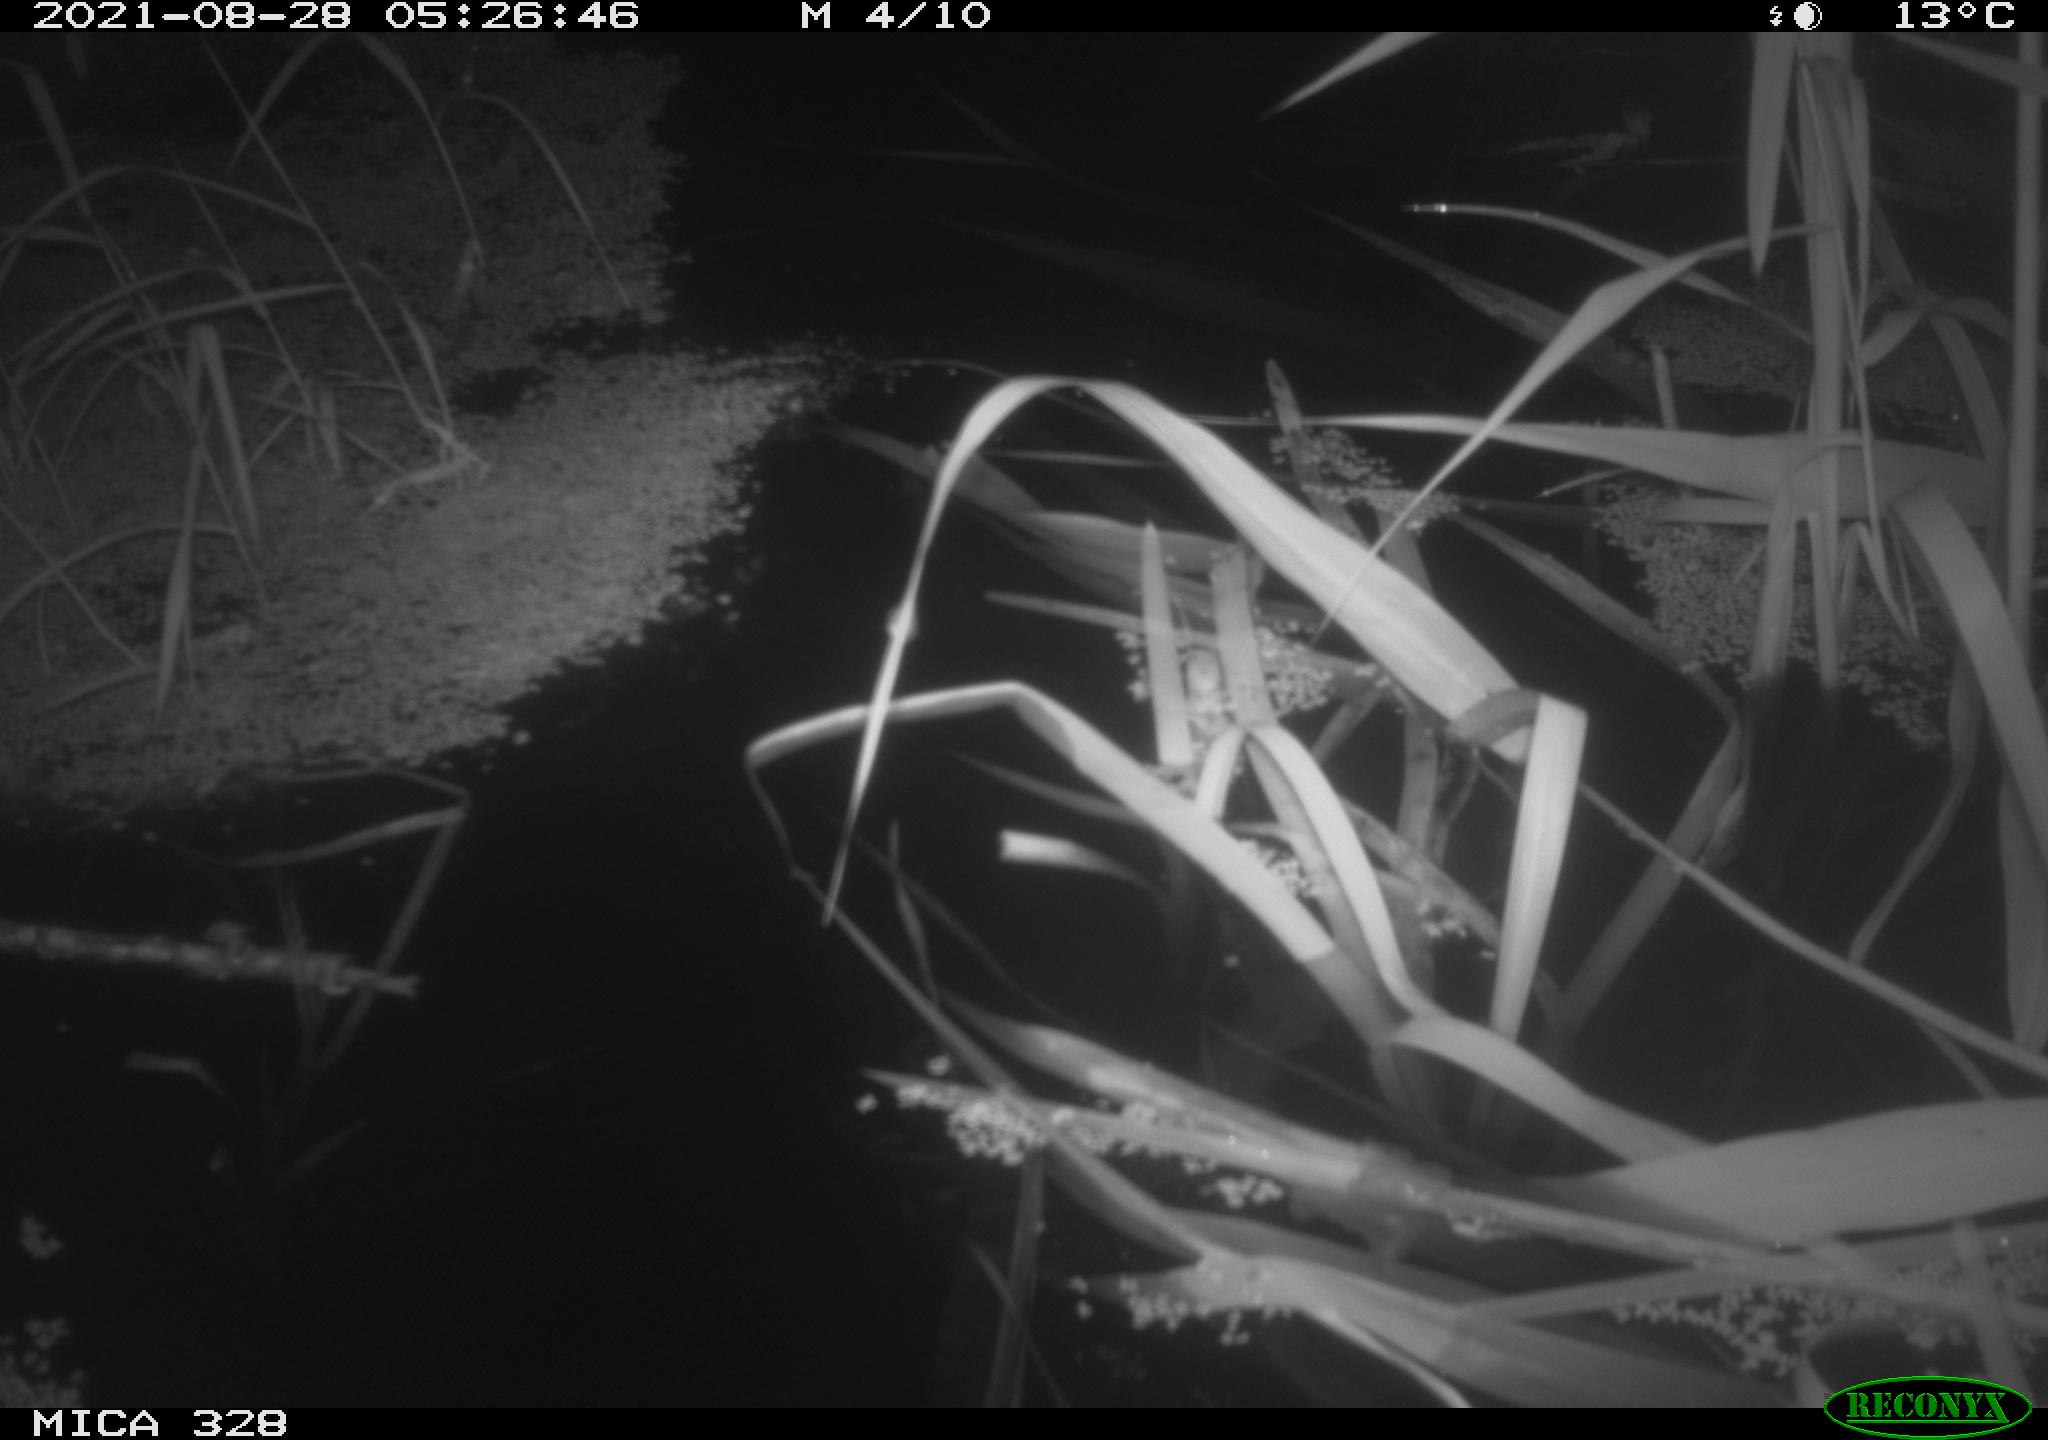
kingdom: Animalia
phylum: Chordata
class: Mammalia
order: Rodentia
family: Cricetidae
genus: Ondatra
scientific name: Ondatra zibethicus
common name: Muskrat
